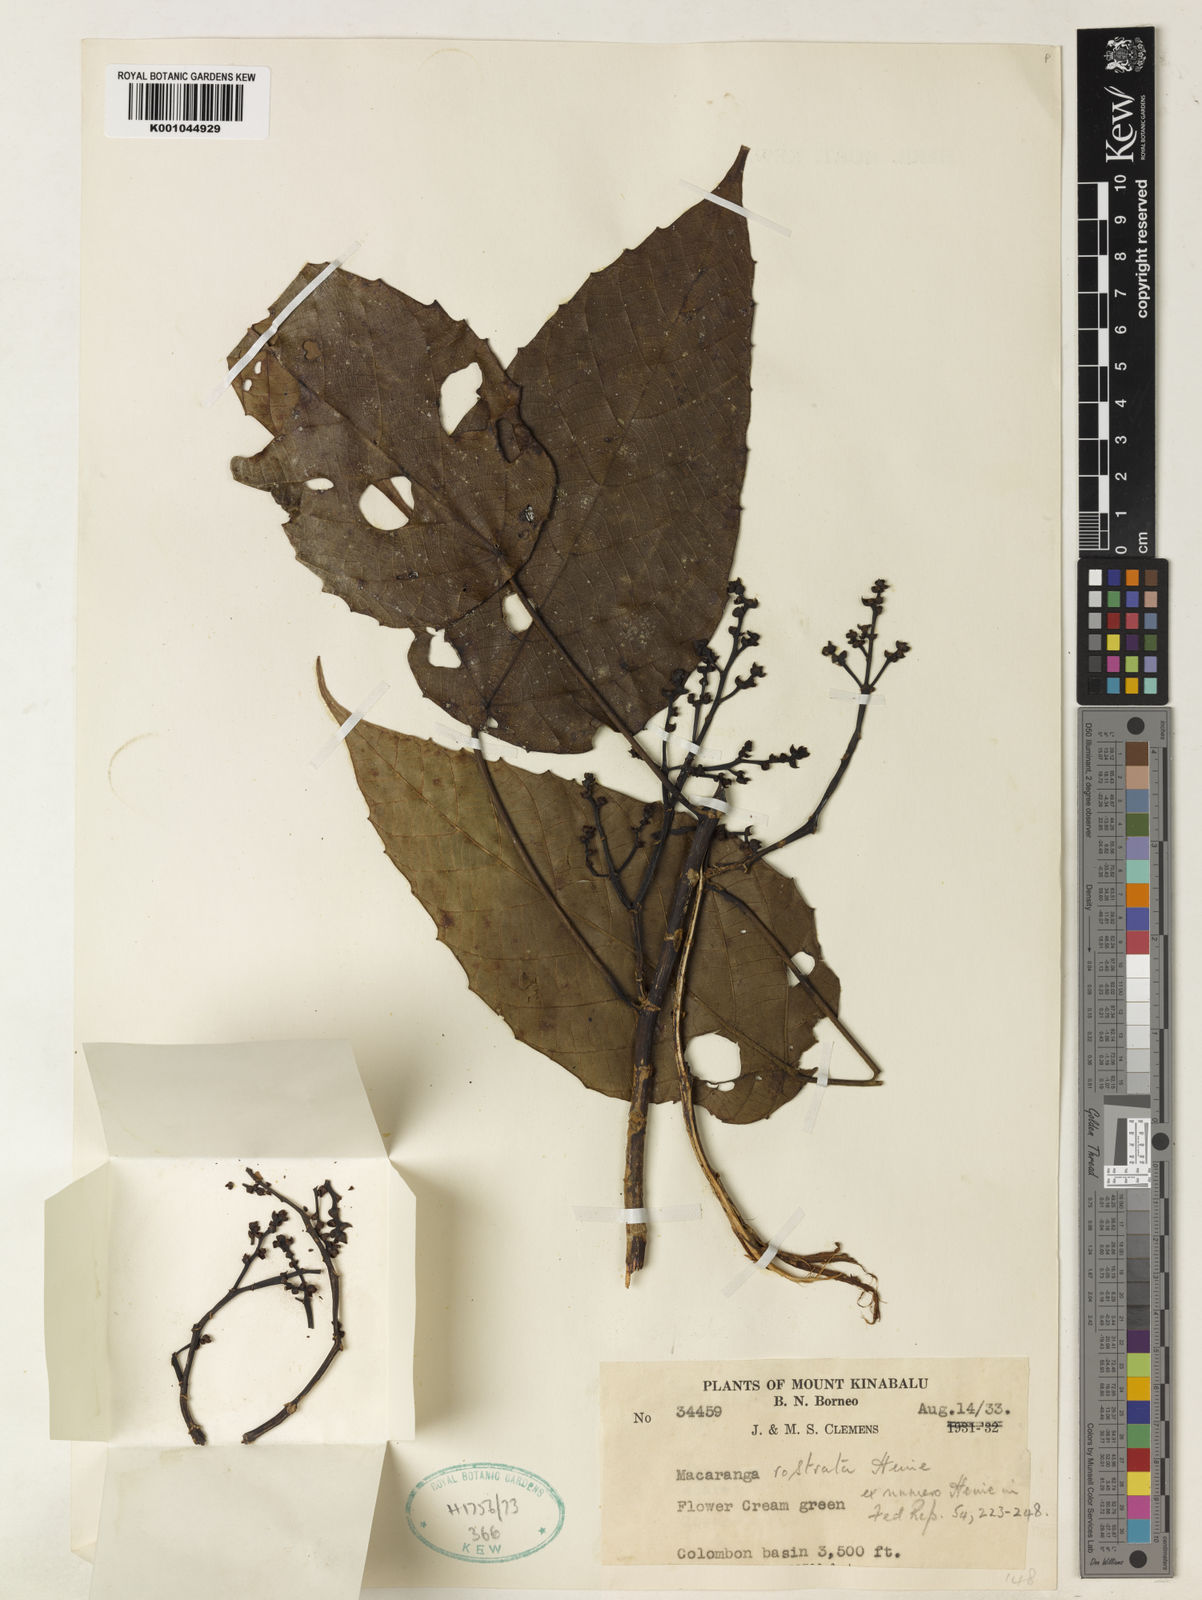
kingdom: Plantae
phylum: Tracheophyta
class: Magnoliopsida
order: Malpighiales
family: Euphorbiaceae
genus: Macaranga
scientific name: Macaranga rostrata
